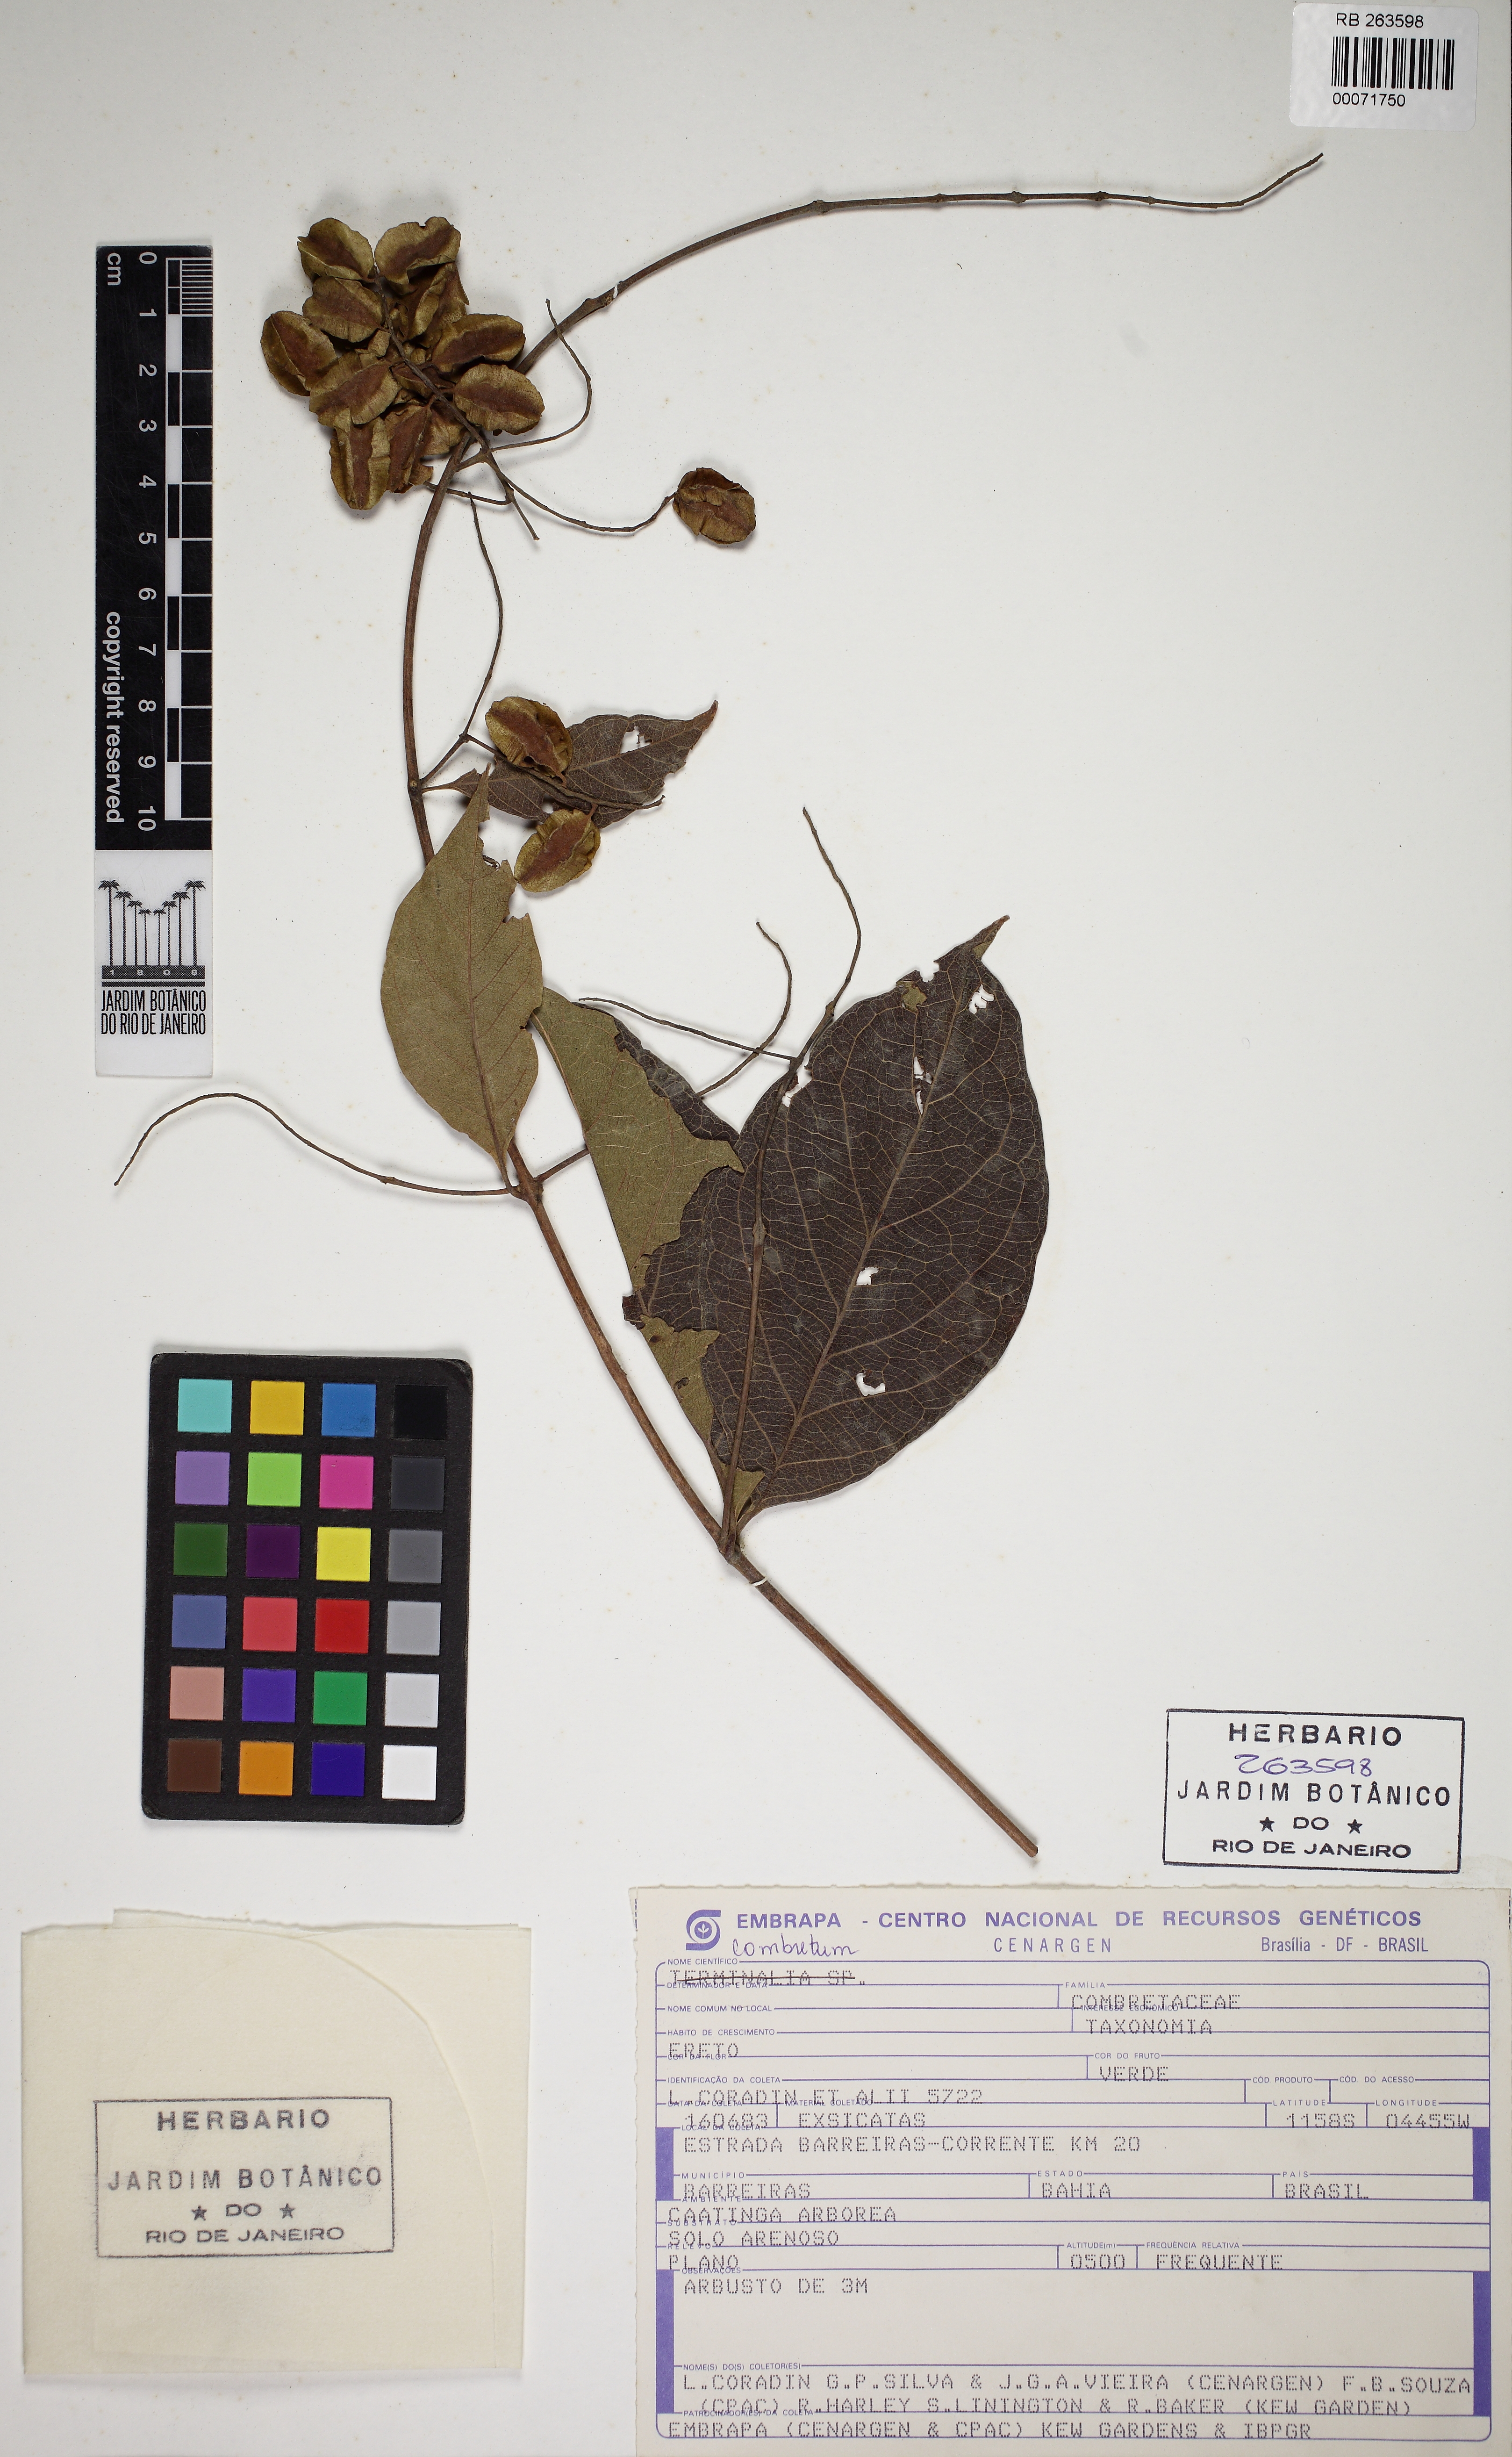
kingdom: Plantae
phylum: Tracheophyta
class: Magnoliopsida
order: Myrtales
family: Combretaceae
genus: Combretum
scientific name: Combretum
